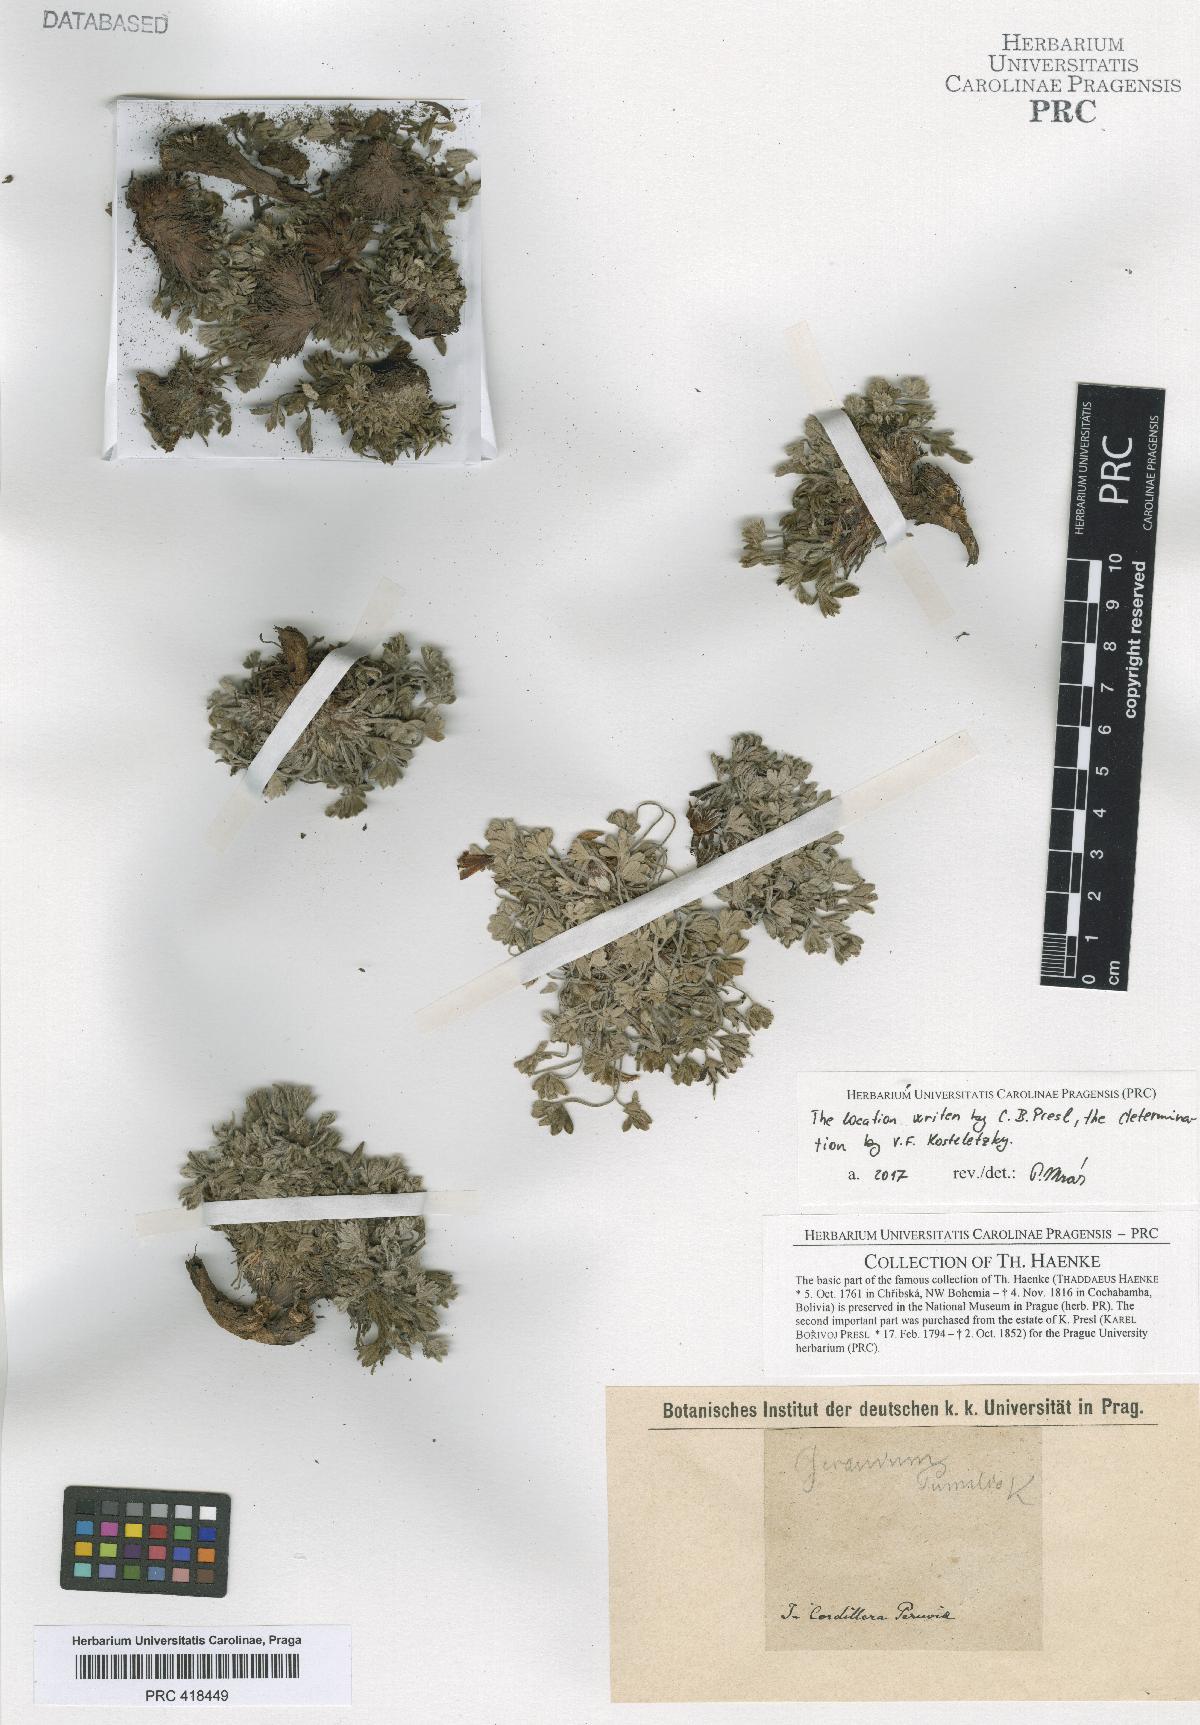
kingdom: Plantae
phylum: Tracheophyta
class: Magnoliopsida
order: Geraniales
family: Geraniaceae
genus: Geranium
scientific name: Geranium crassipes
